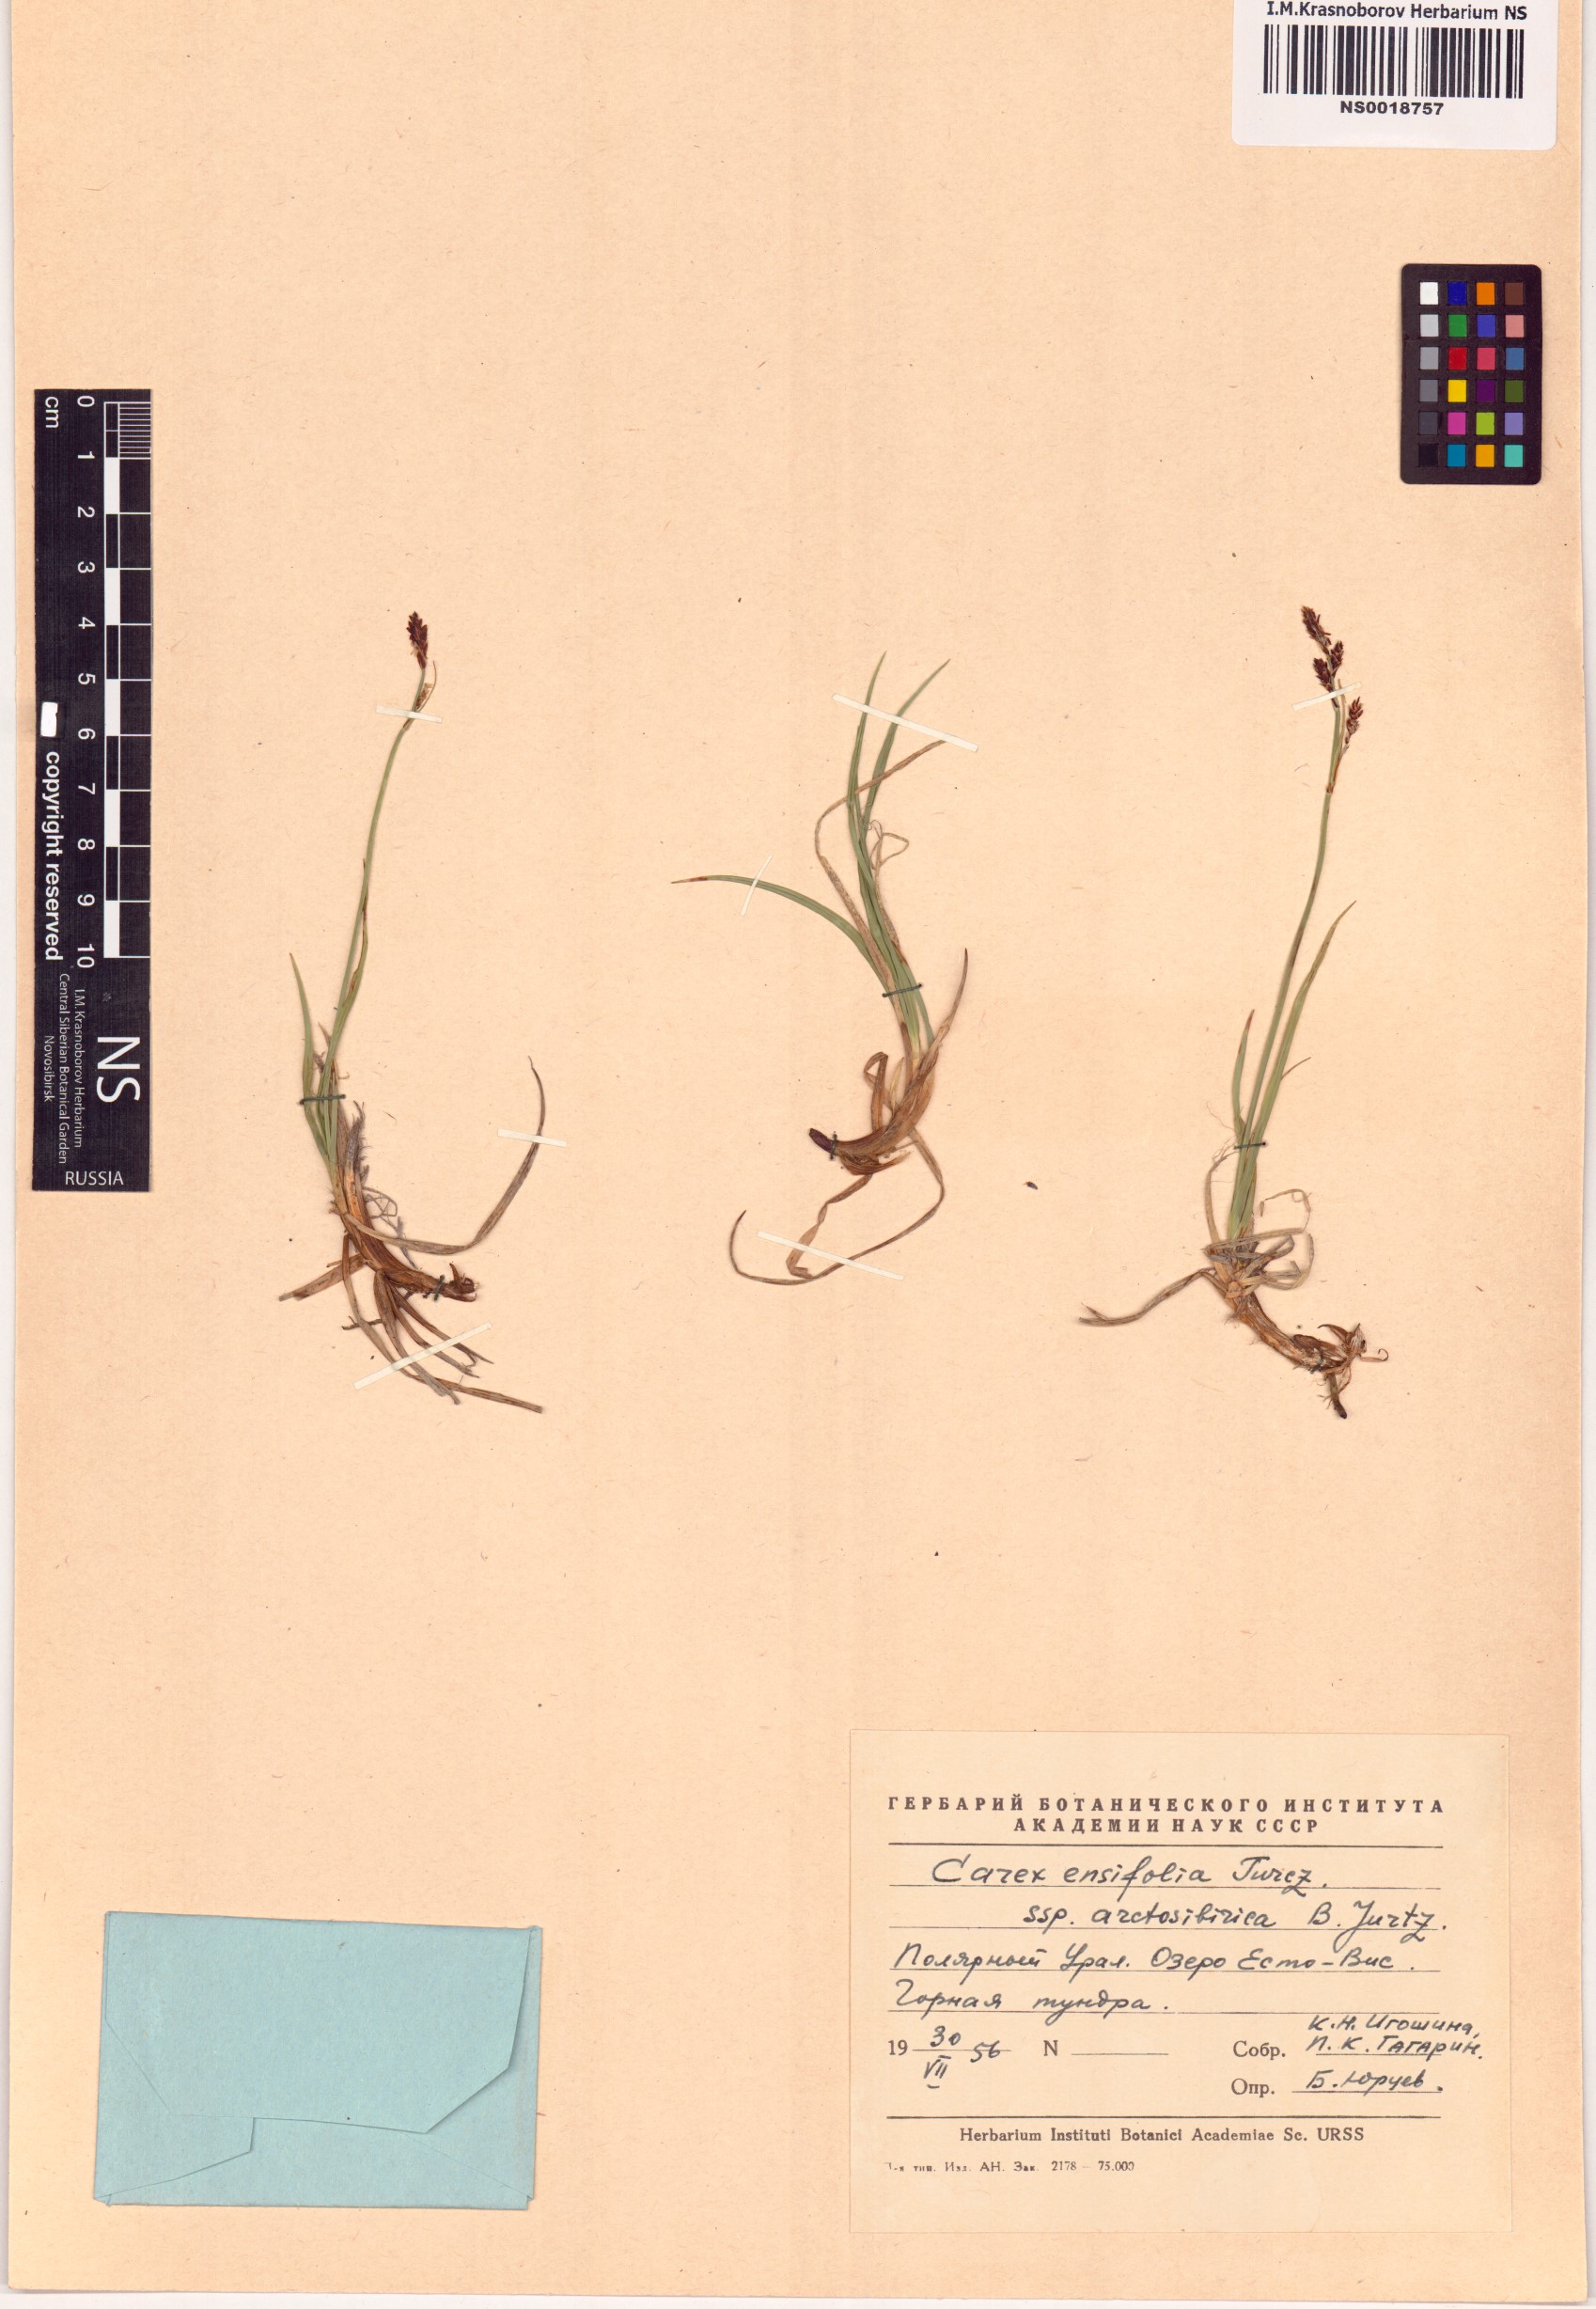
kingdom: Plantae
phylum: Tracheophyta
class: Liliopsida
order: Poales
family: Cyperaceae
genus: Carex
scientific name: Carex bigelowii
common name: Stiff sedge
